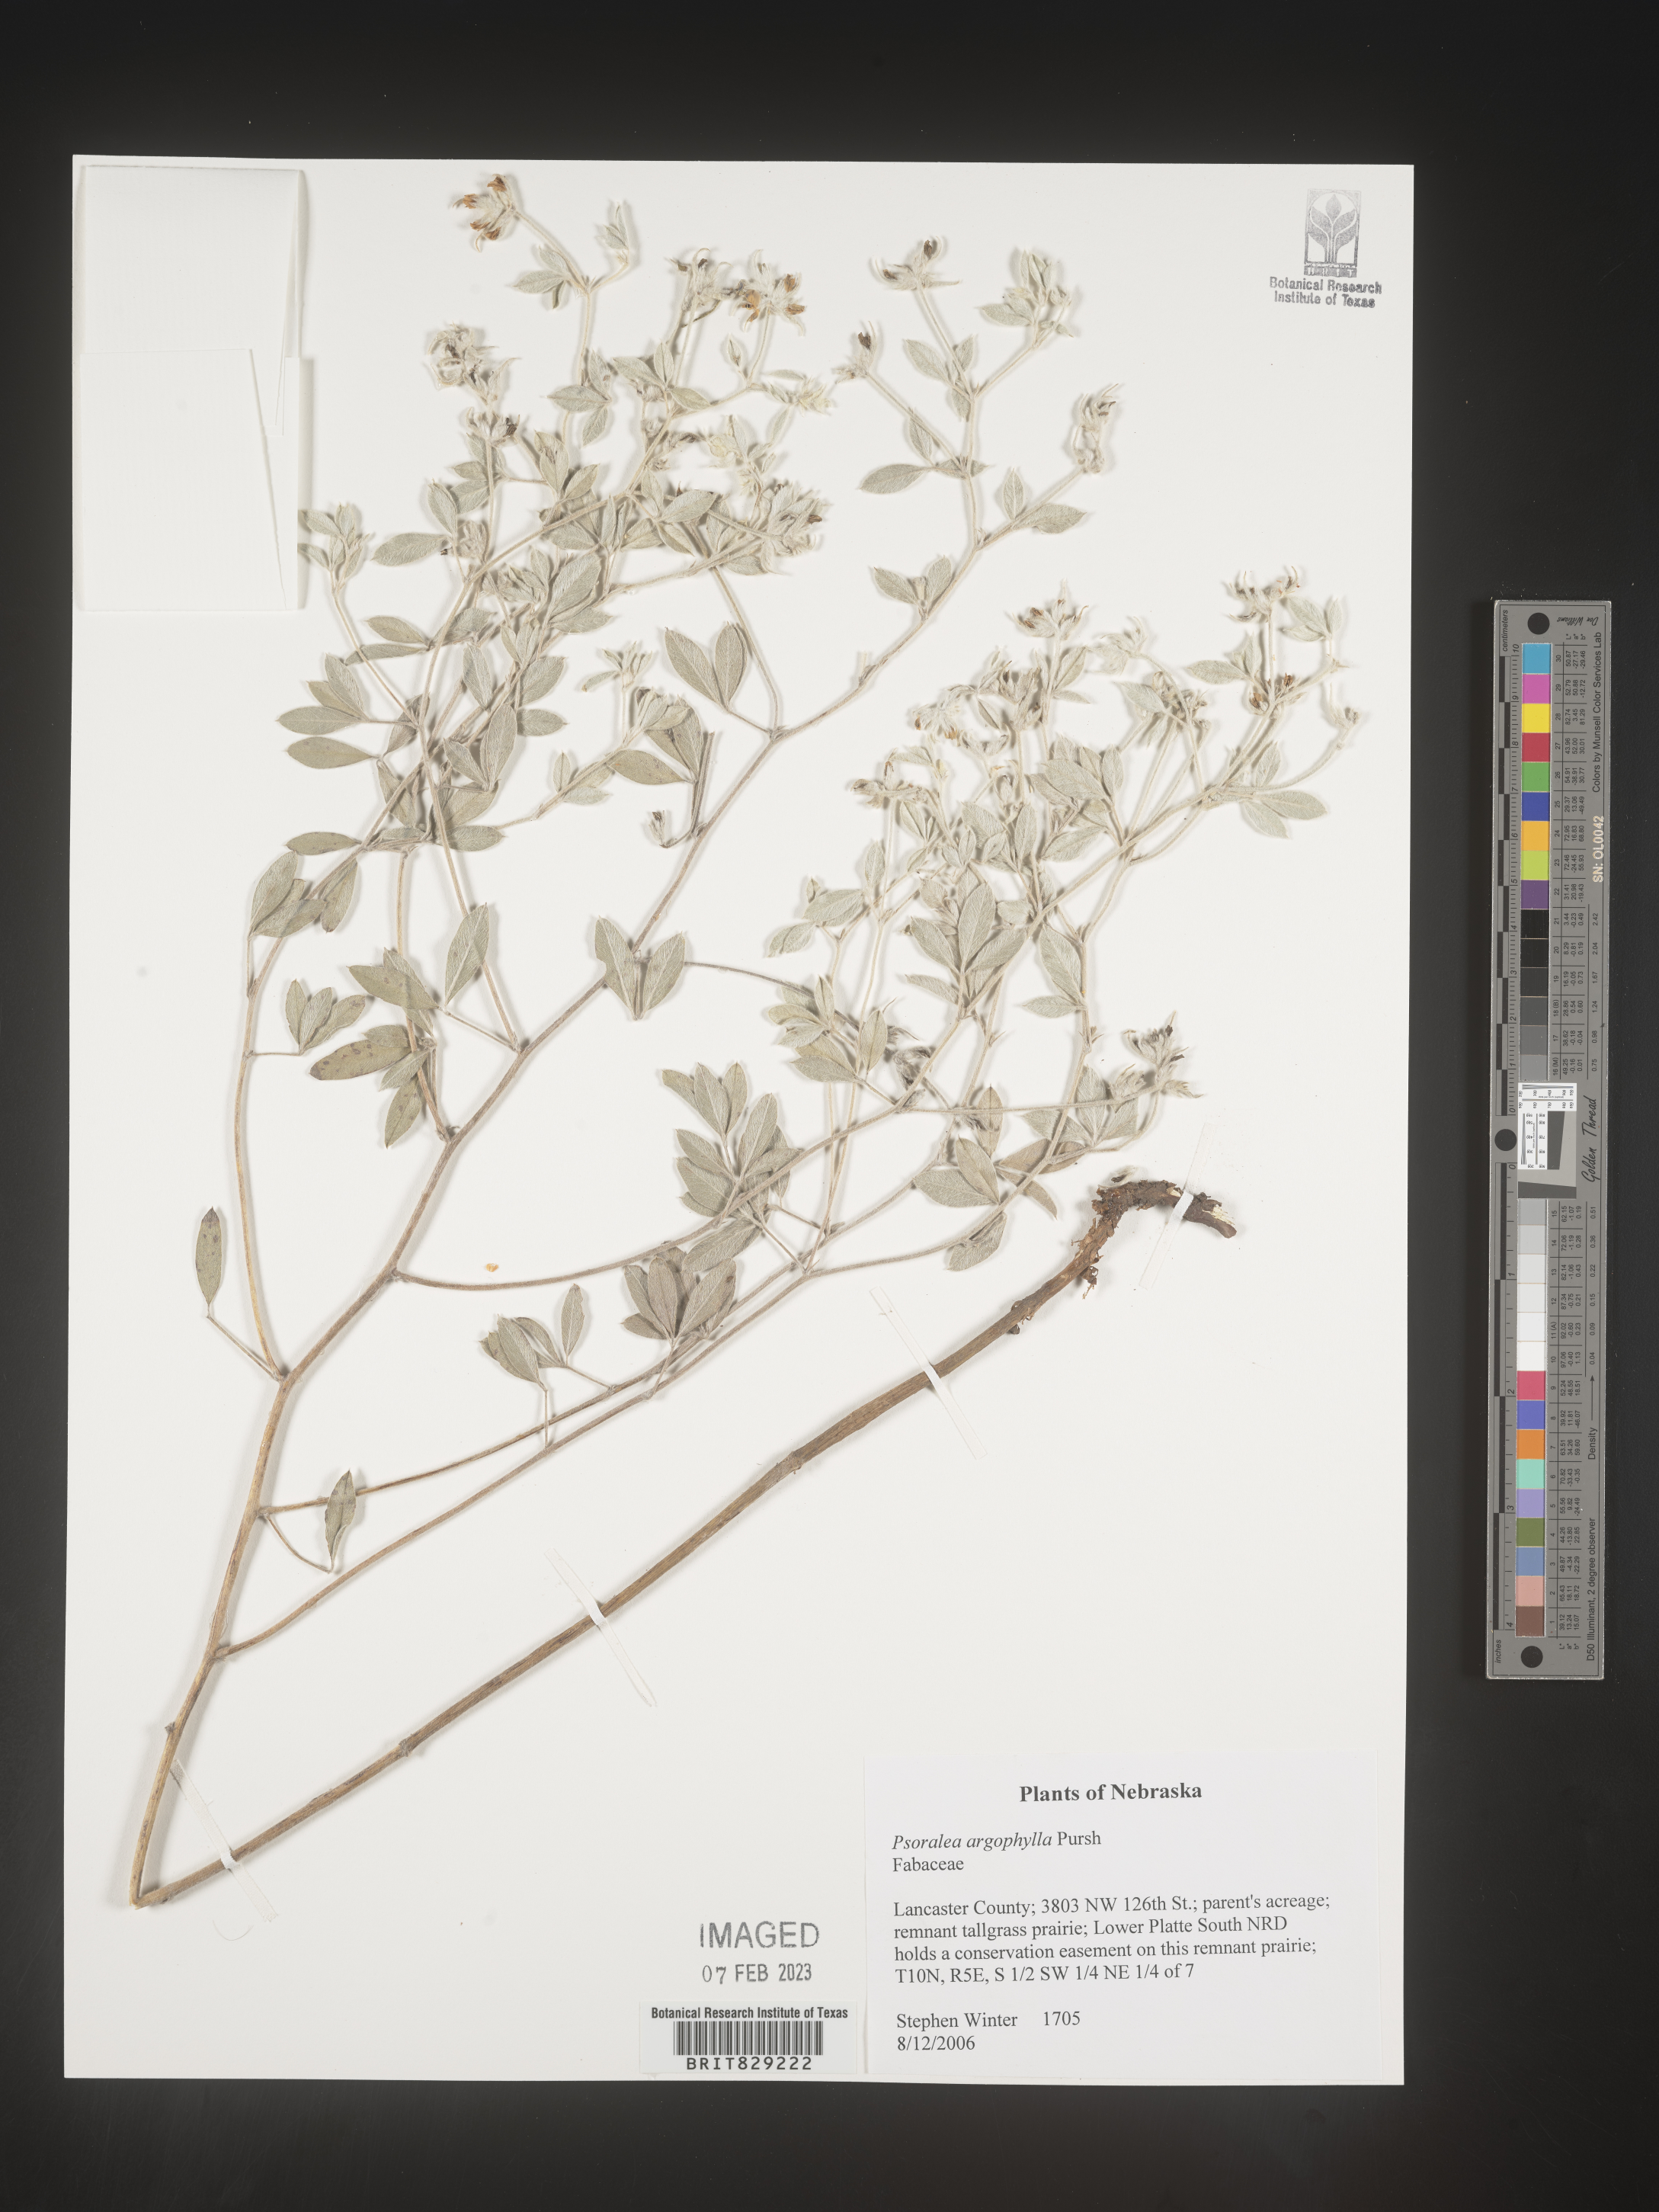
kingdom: Plantae
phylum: Tracheophyta
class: Magnoliopsida
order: Fabales
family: Fabaceae
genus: Pediomelum
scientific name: Pediomelum argophyllum
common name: Silver-leaved indian breadroot
